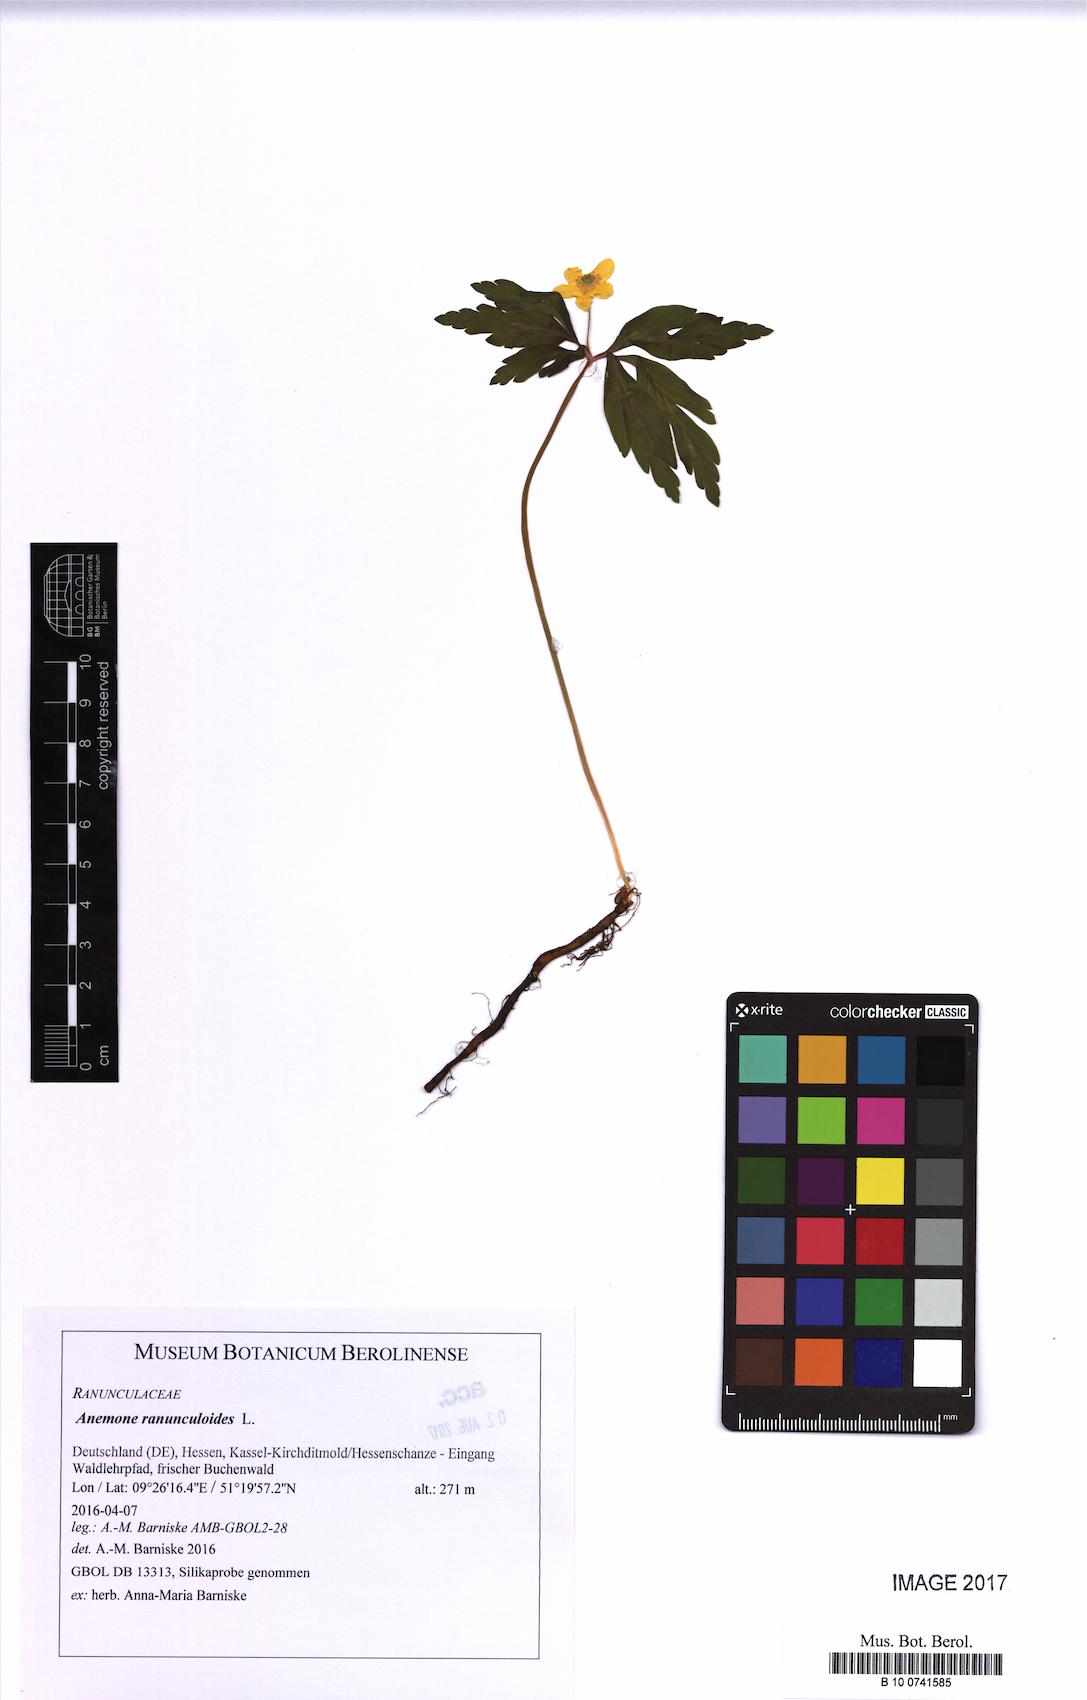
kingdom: Plantae
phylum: Tracheophyta
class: Magnoliopsida
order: Ranunculales
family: Ranunculaceae
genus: Anemone
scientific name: Anemone ranunculoides
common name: Yellow anemone
